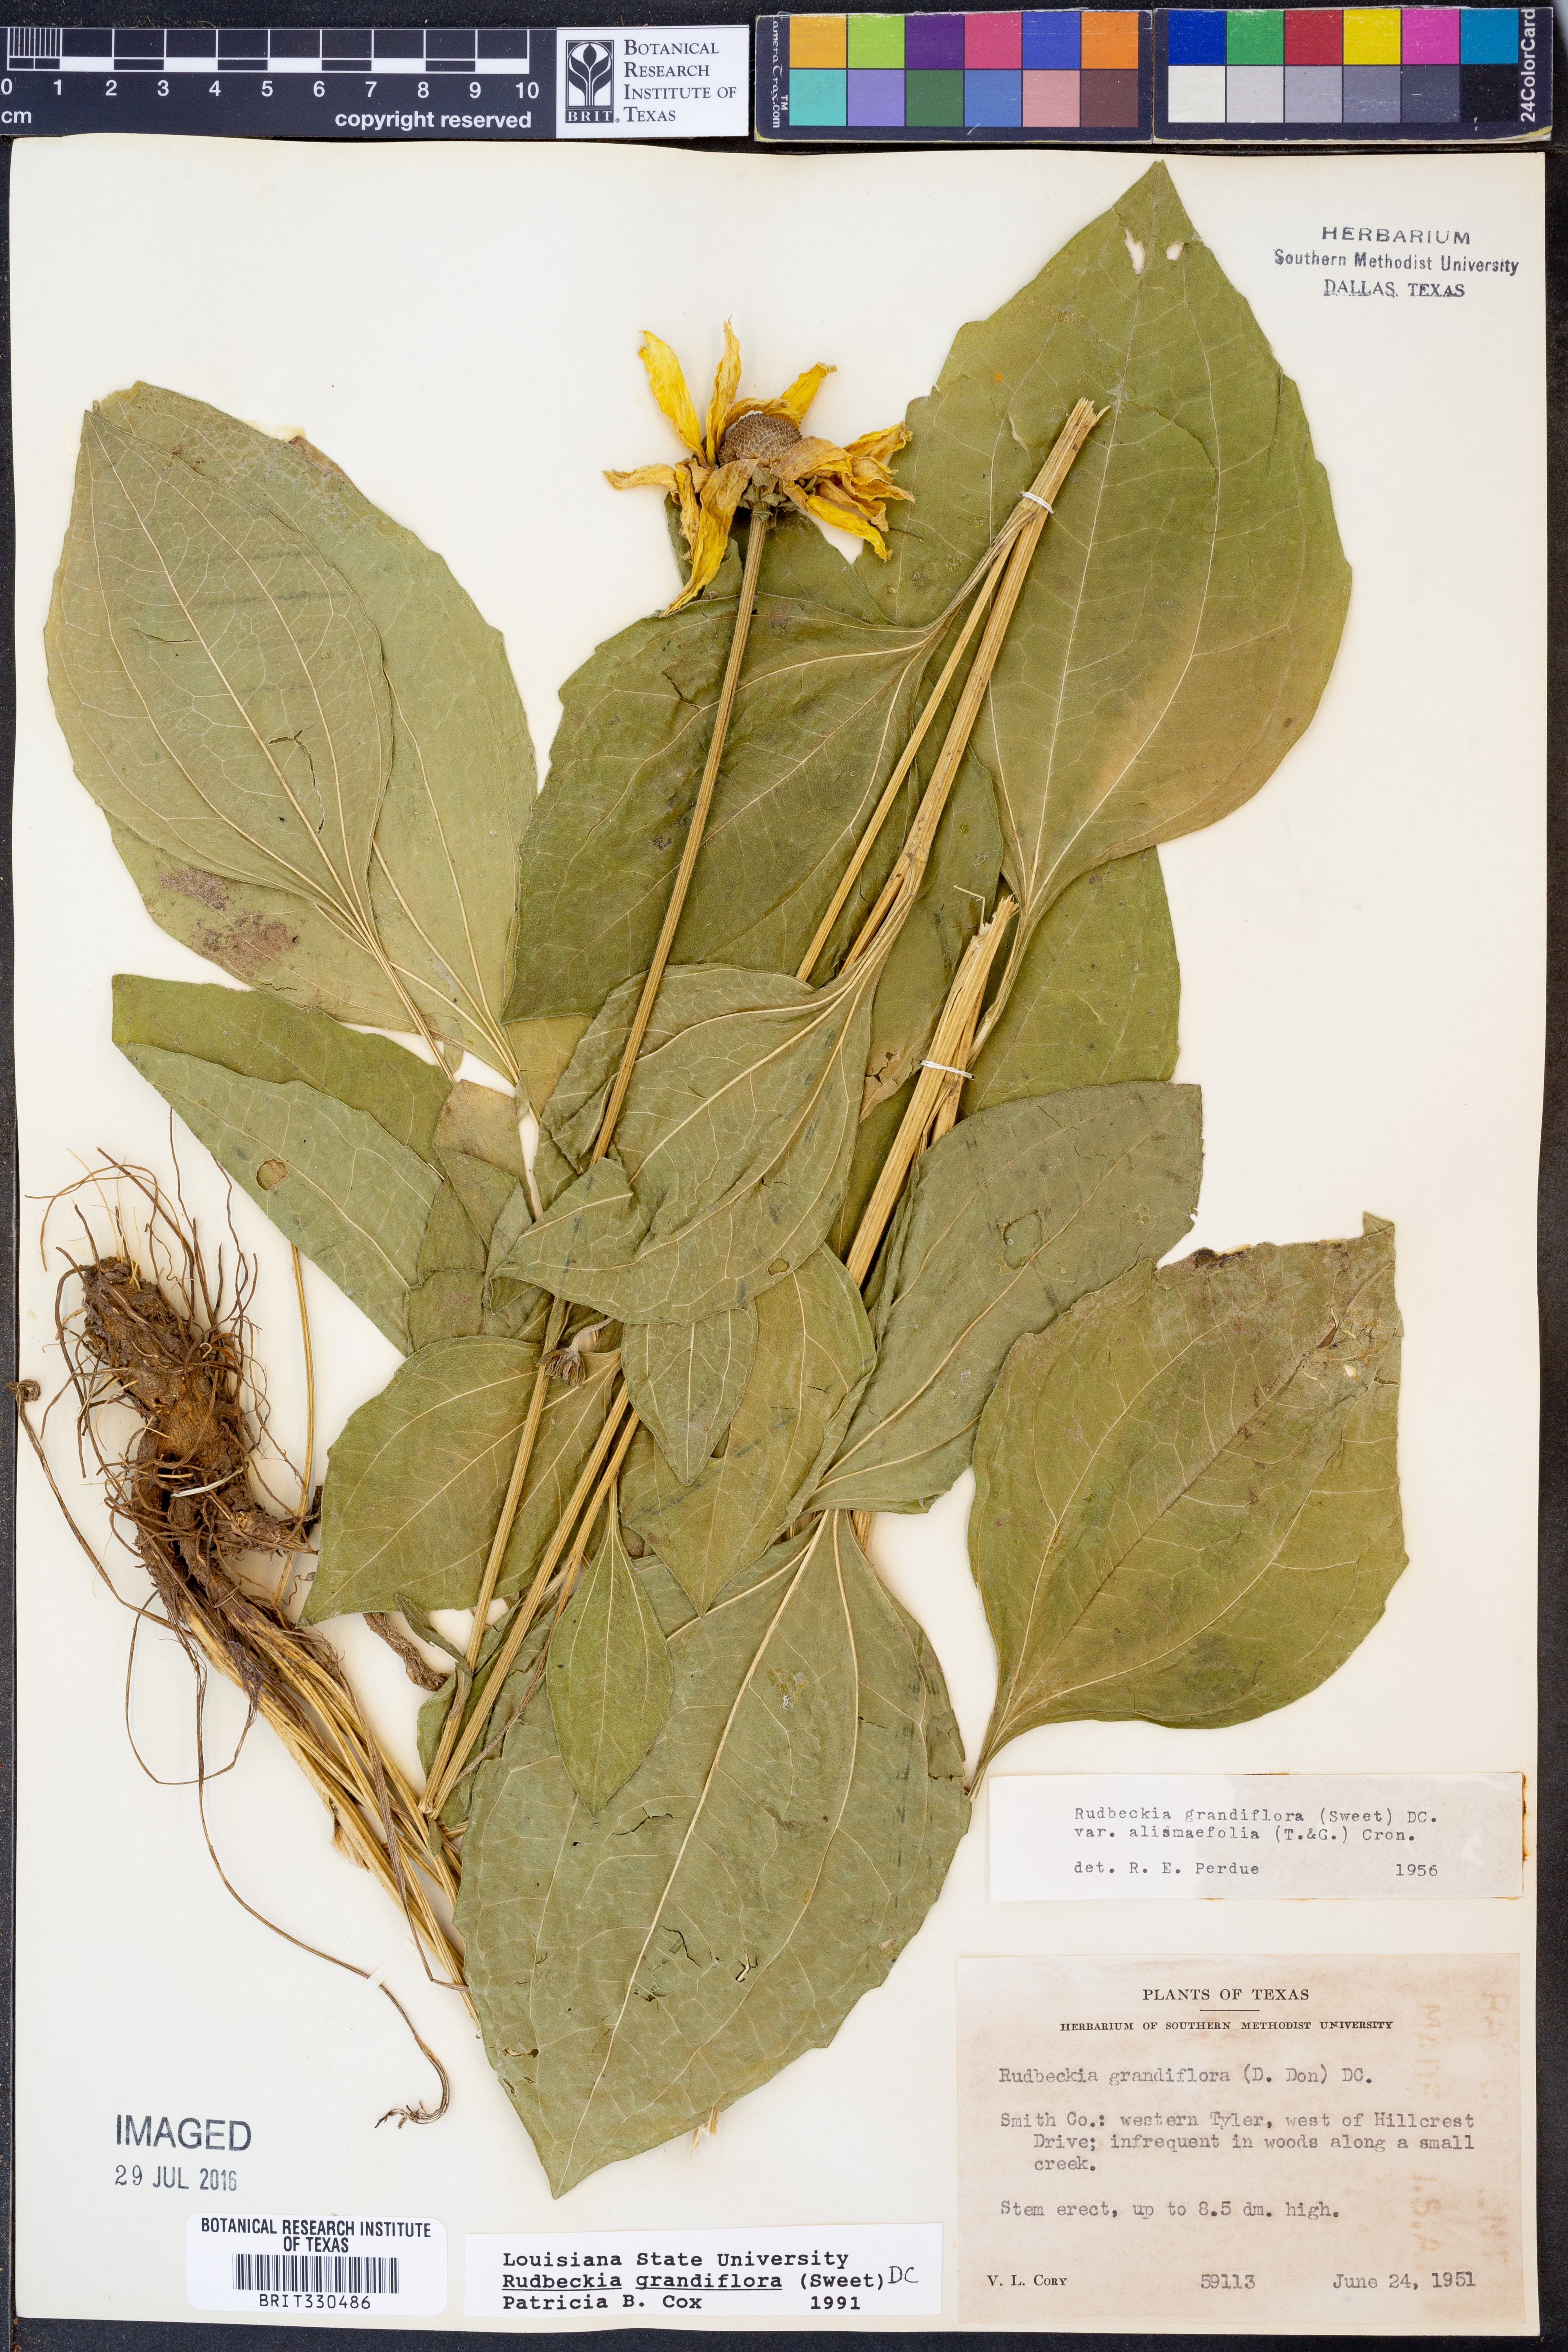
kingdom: Plantae
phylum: Tracheophyta
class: Magnoliopsida
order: Asterales
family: Asteraceae
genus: Rudbeckia
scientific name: Rudbeckia grandiflora
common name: Large-flowered coneflower
